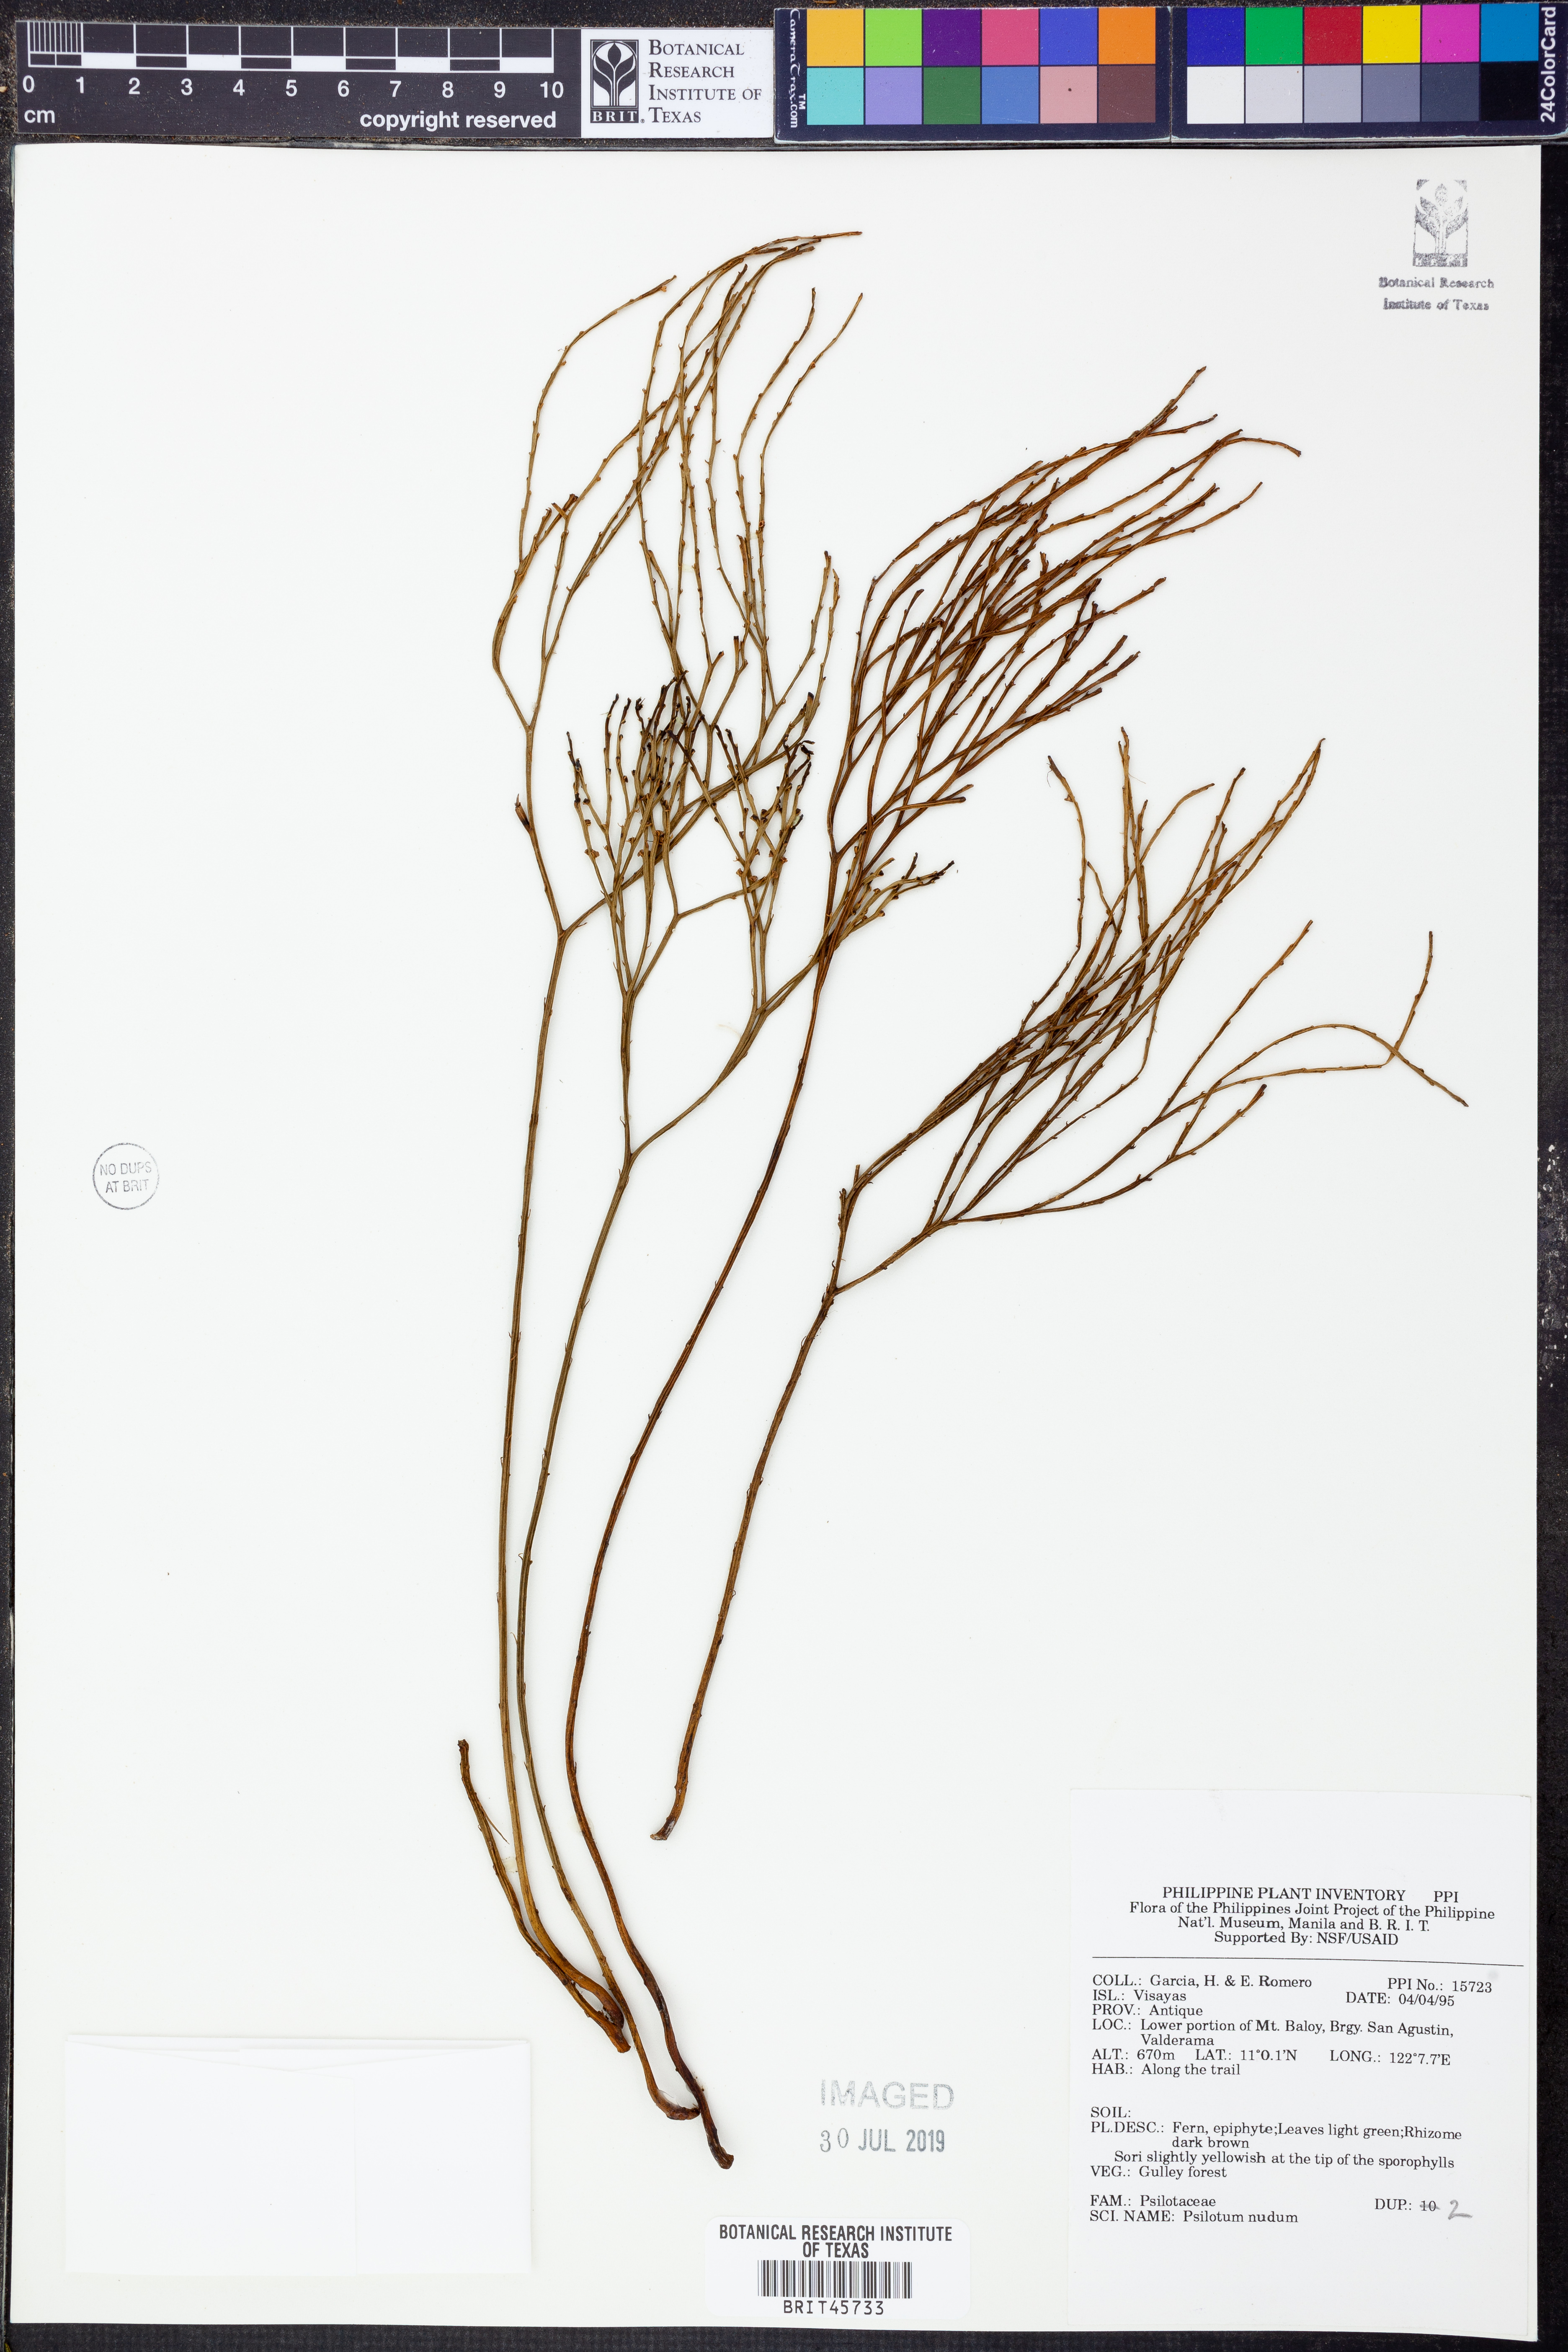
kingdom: Plantae
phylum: Tracheophyta
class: Polypodiopsida
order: Psilotales
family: Psilotaceae
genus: Psilotum
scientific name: Psilotum nudum
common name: Skeleton fork fern
